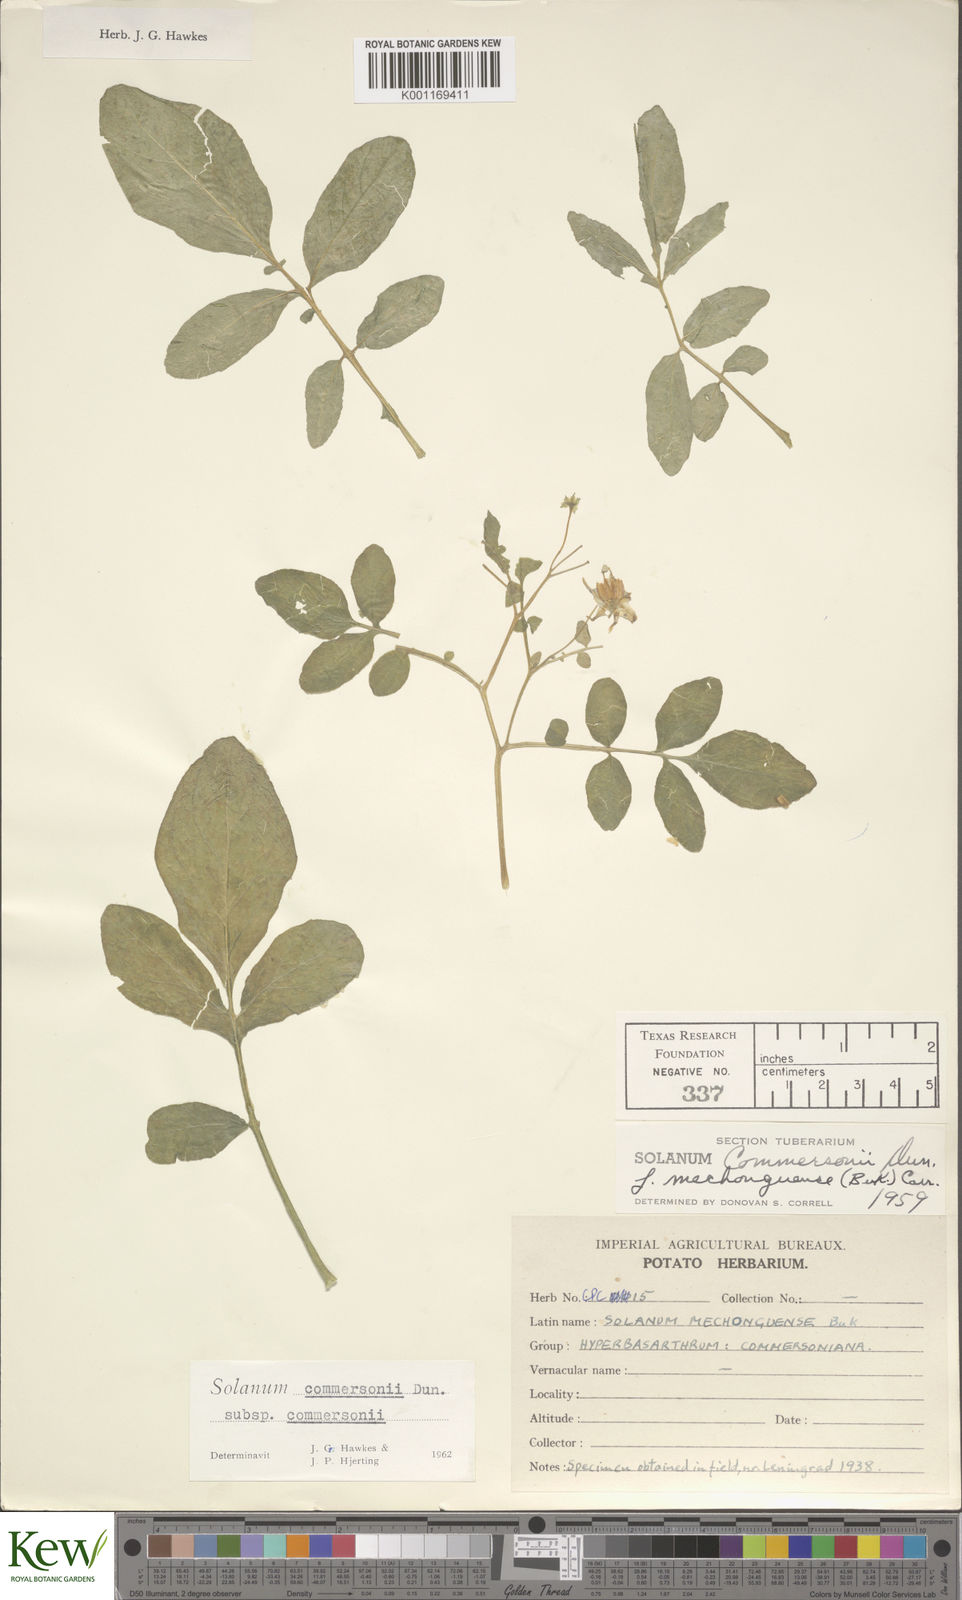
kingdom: Plantae
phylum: Tracheophyta
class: Magnoliopsida
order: Solanales
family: Solanaceae
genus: Solanum
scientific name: Solanum commersonii
